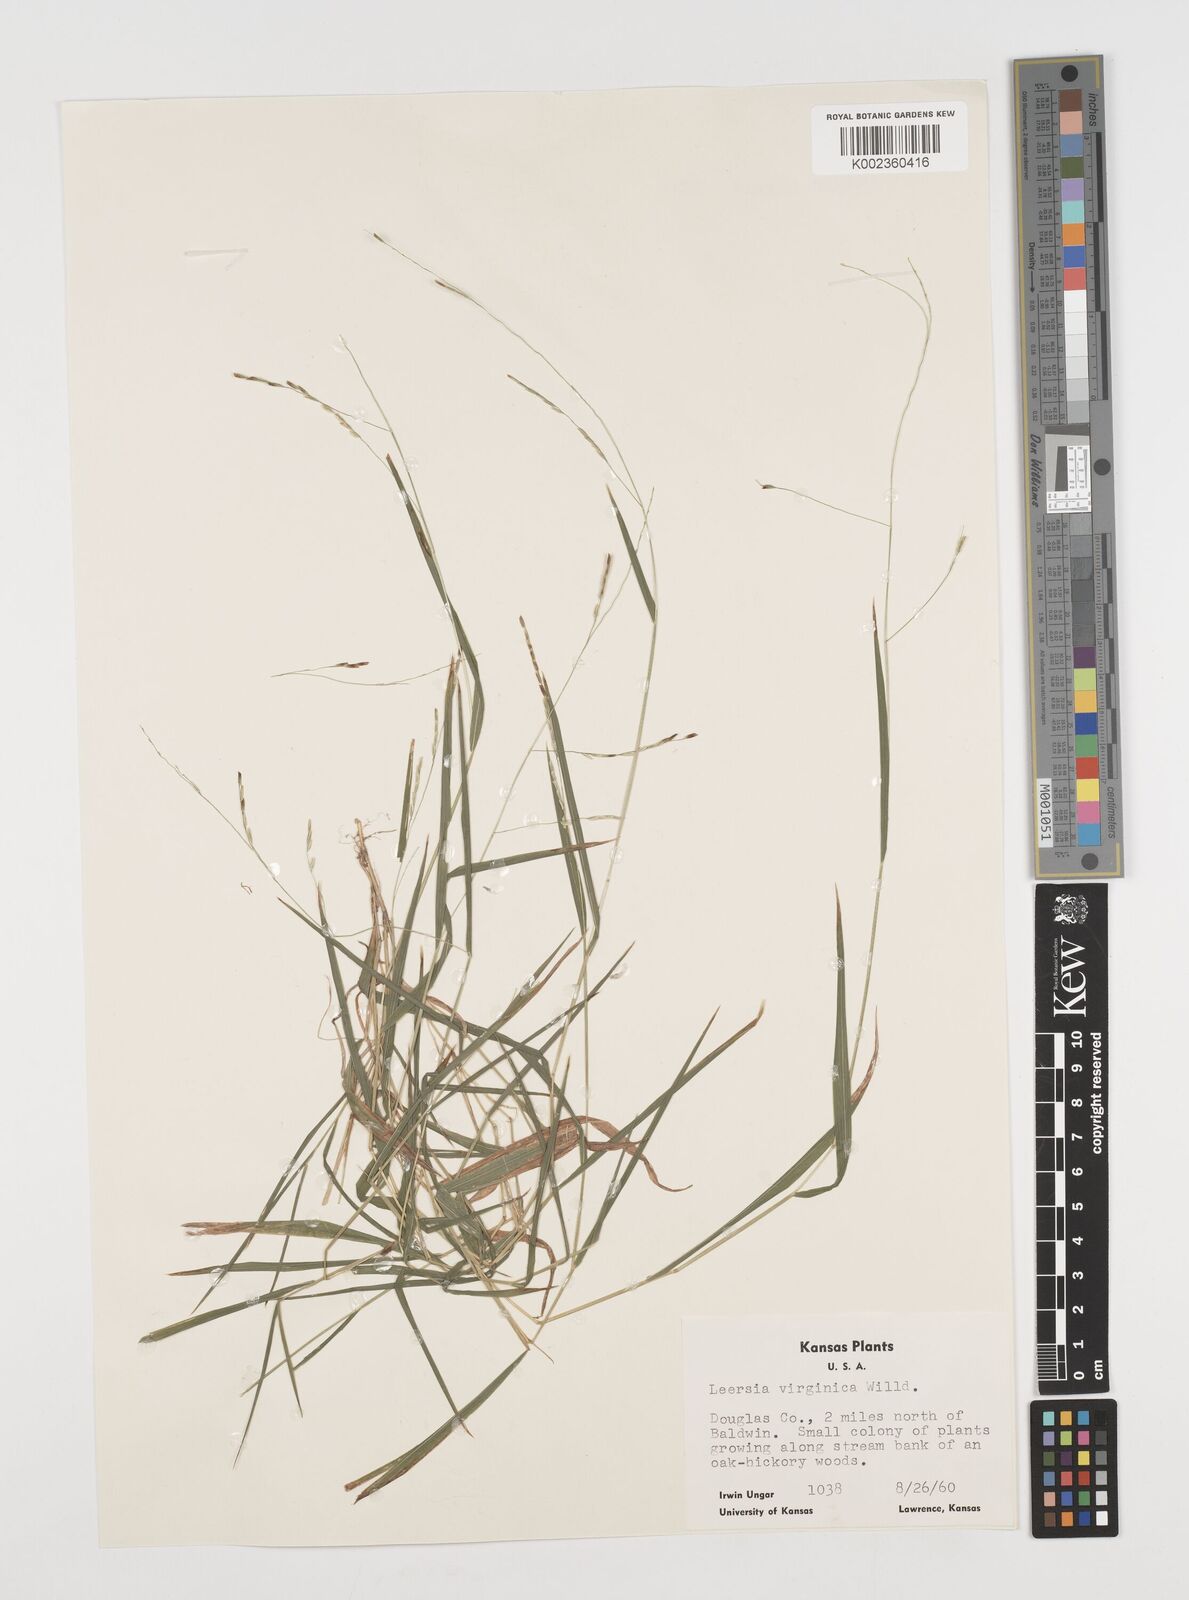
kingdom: Plantae
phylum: Tracheophyta
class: Liliopsida
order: Poales
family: Poaceae
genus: Leersia
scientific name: Leersia virginica
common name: White cutgrass
